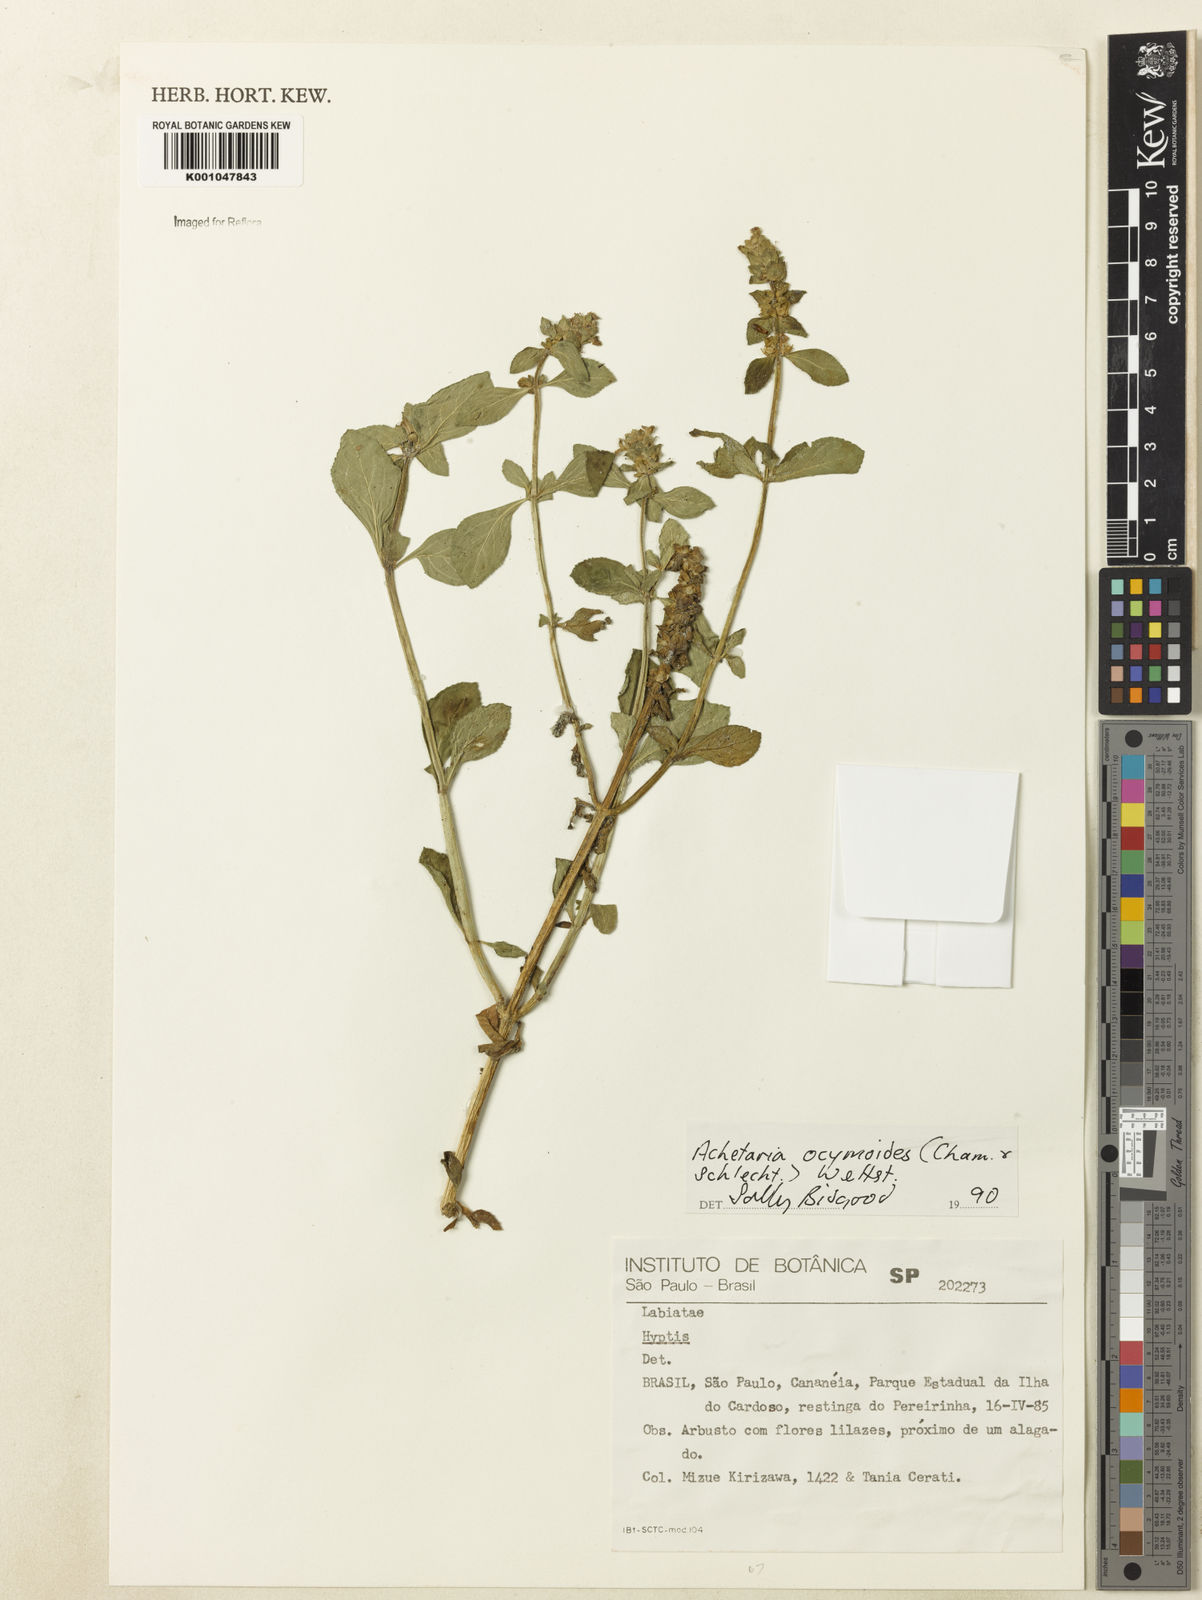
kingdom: Plantae
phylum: Tracheophyta
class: Magnoliopsida
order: Lamiales
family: Plantaginaceae
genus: Matourea
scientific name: Matourea ocymoides
